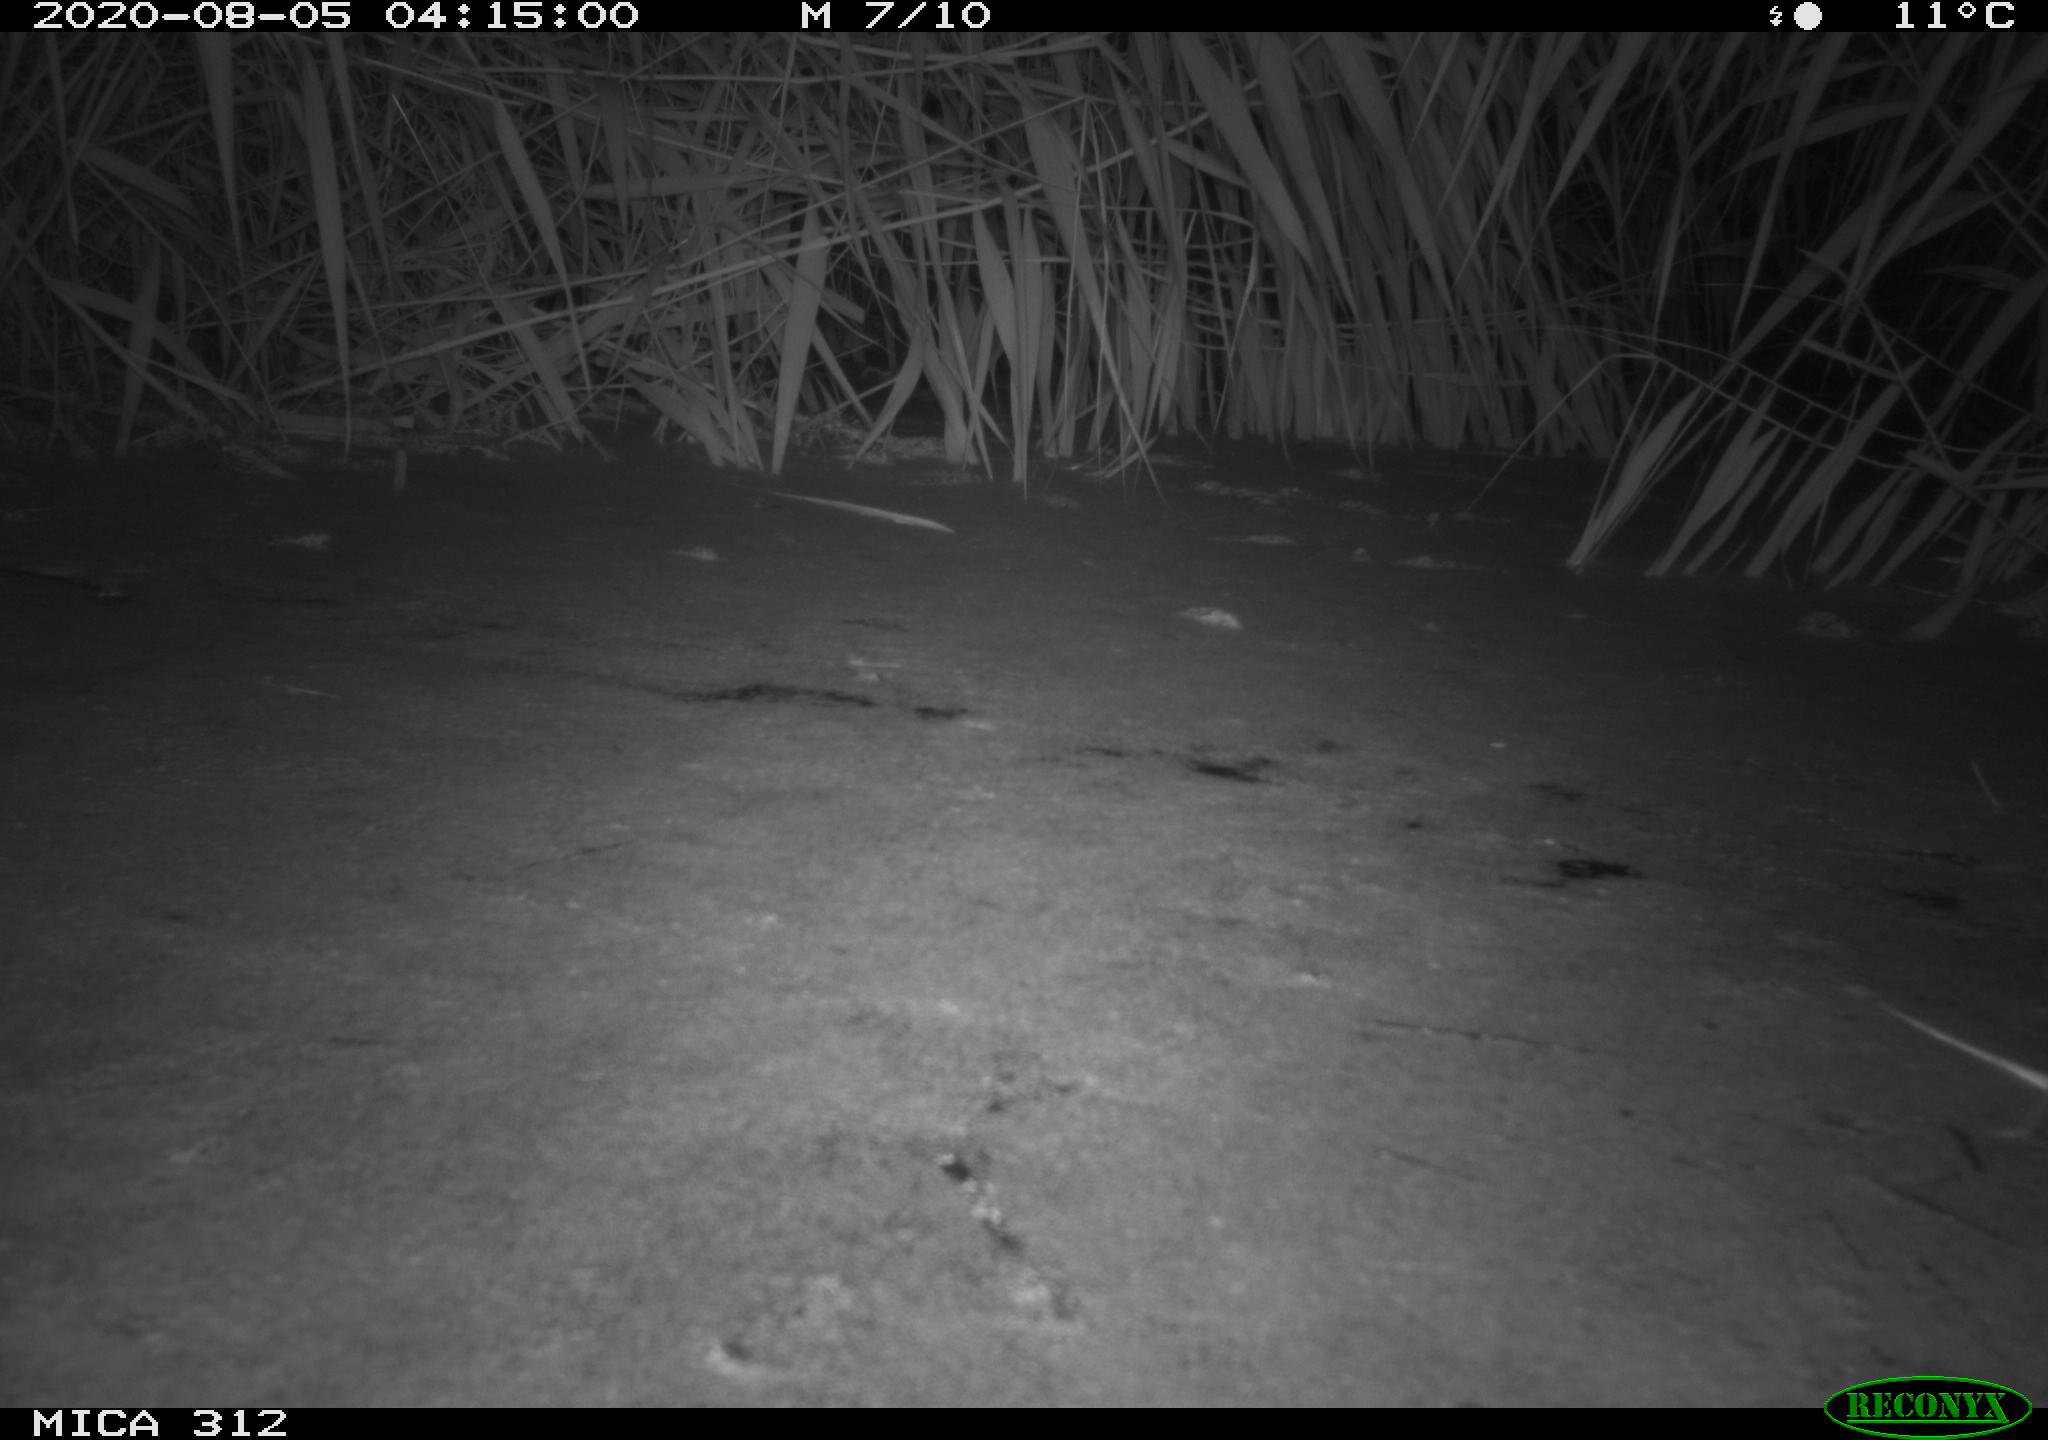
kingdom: Animalia
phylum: Chordata
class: Mammalia
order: Rodentia
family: Muridae
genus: Rattus
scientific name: Rattus norvegicus
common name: Brown rat
